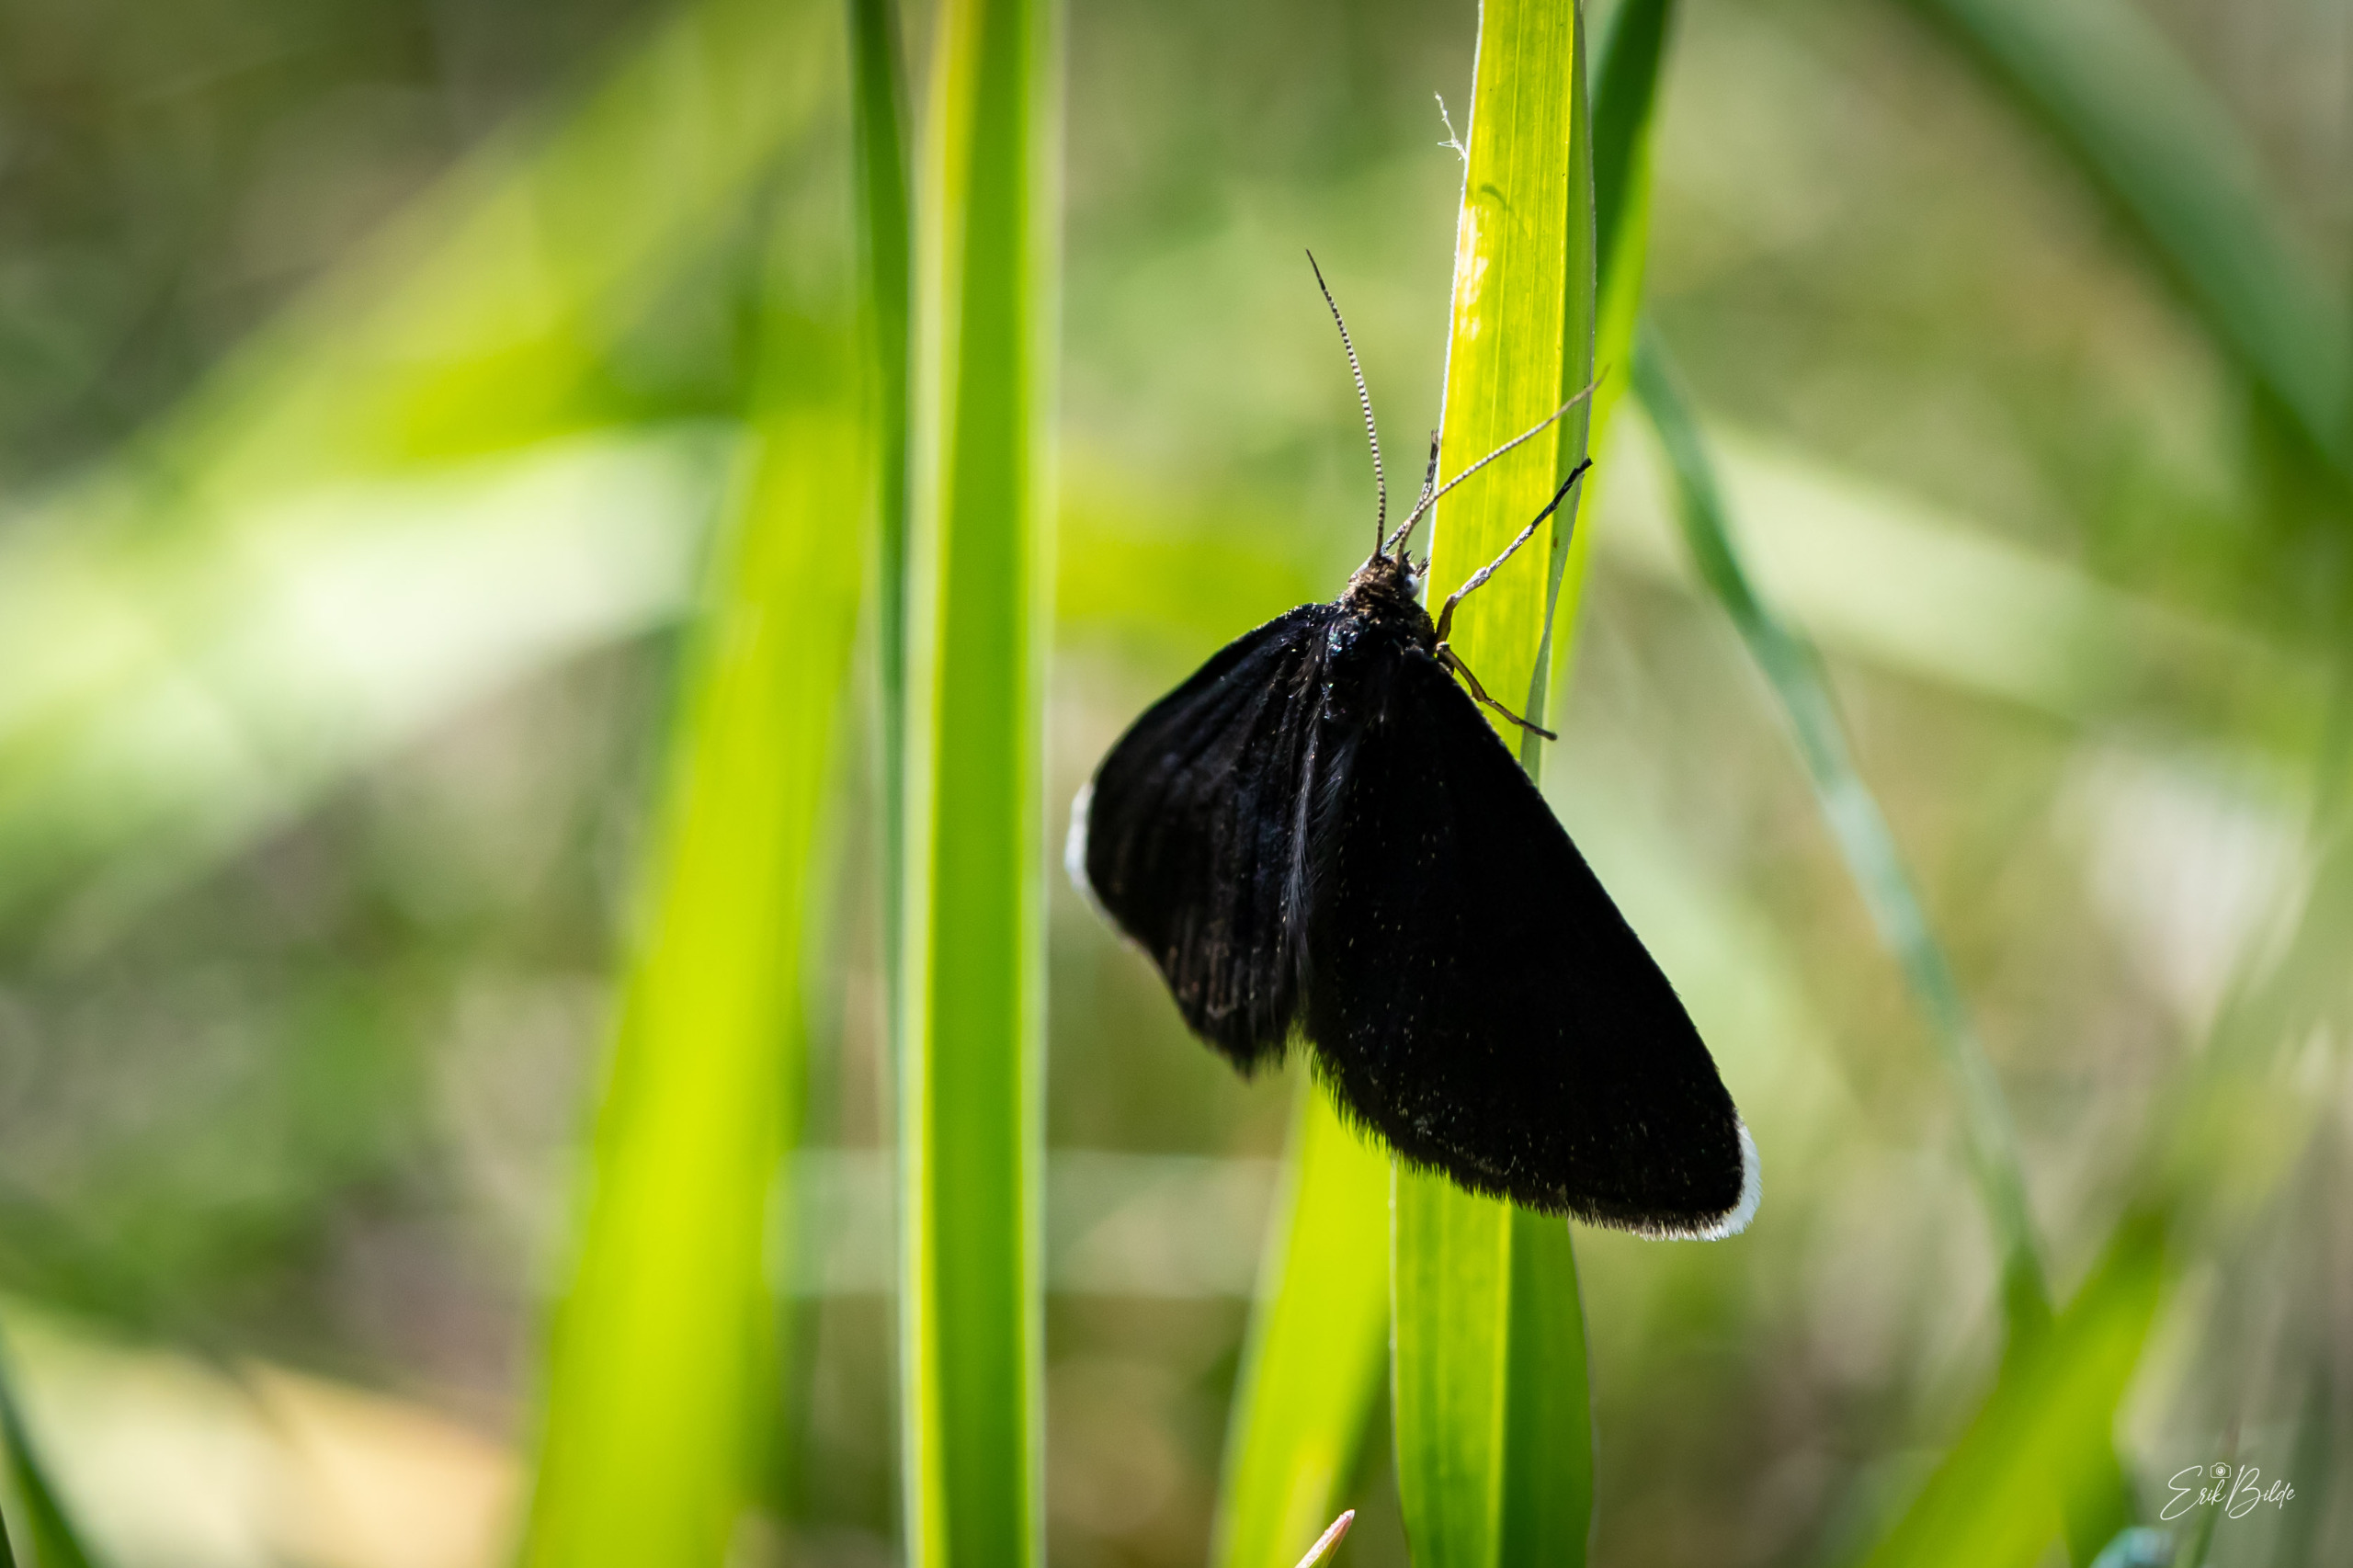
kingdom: Animalia
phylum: Arthropoda
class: Insecta
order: Lepidoptera
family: Geometridae
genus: Odezia
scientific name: Odezia atrata
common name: Sort måler
